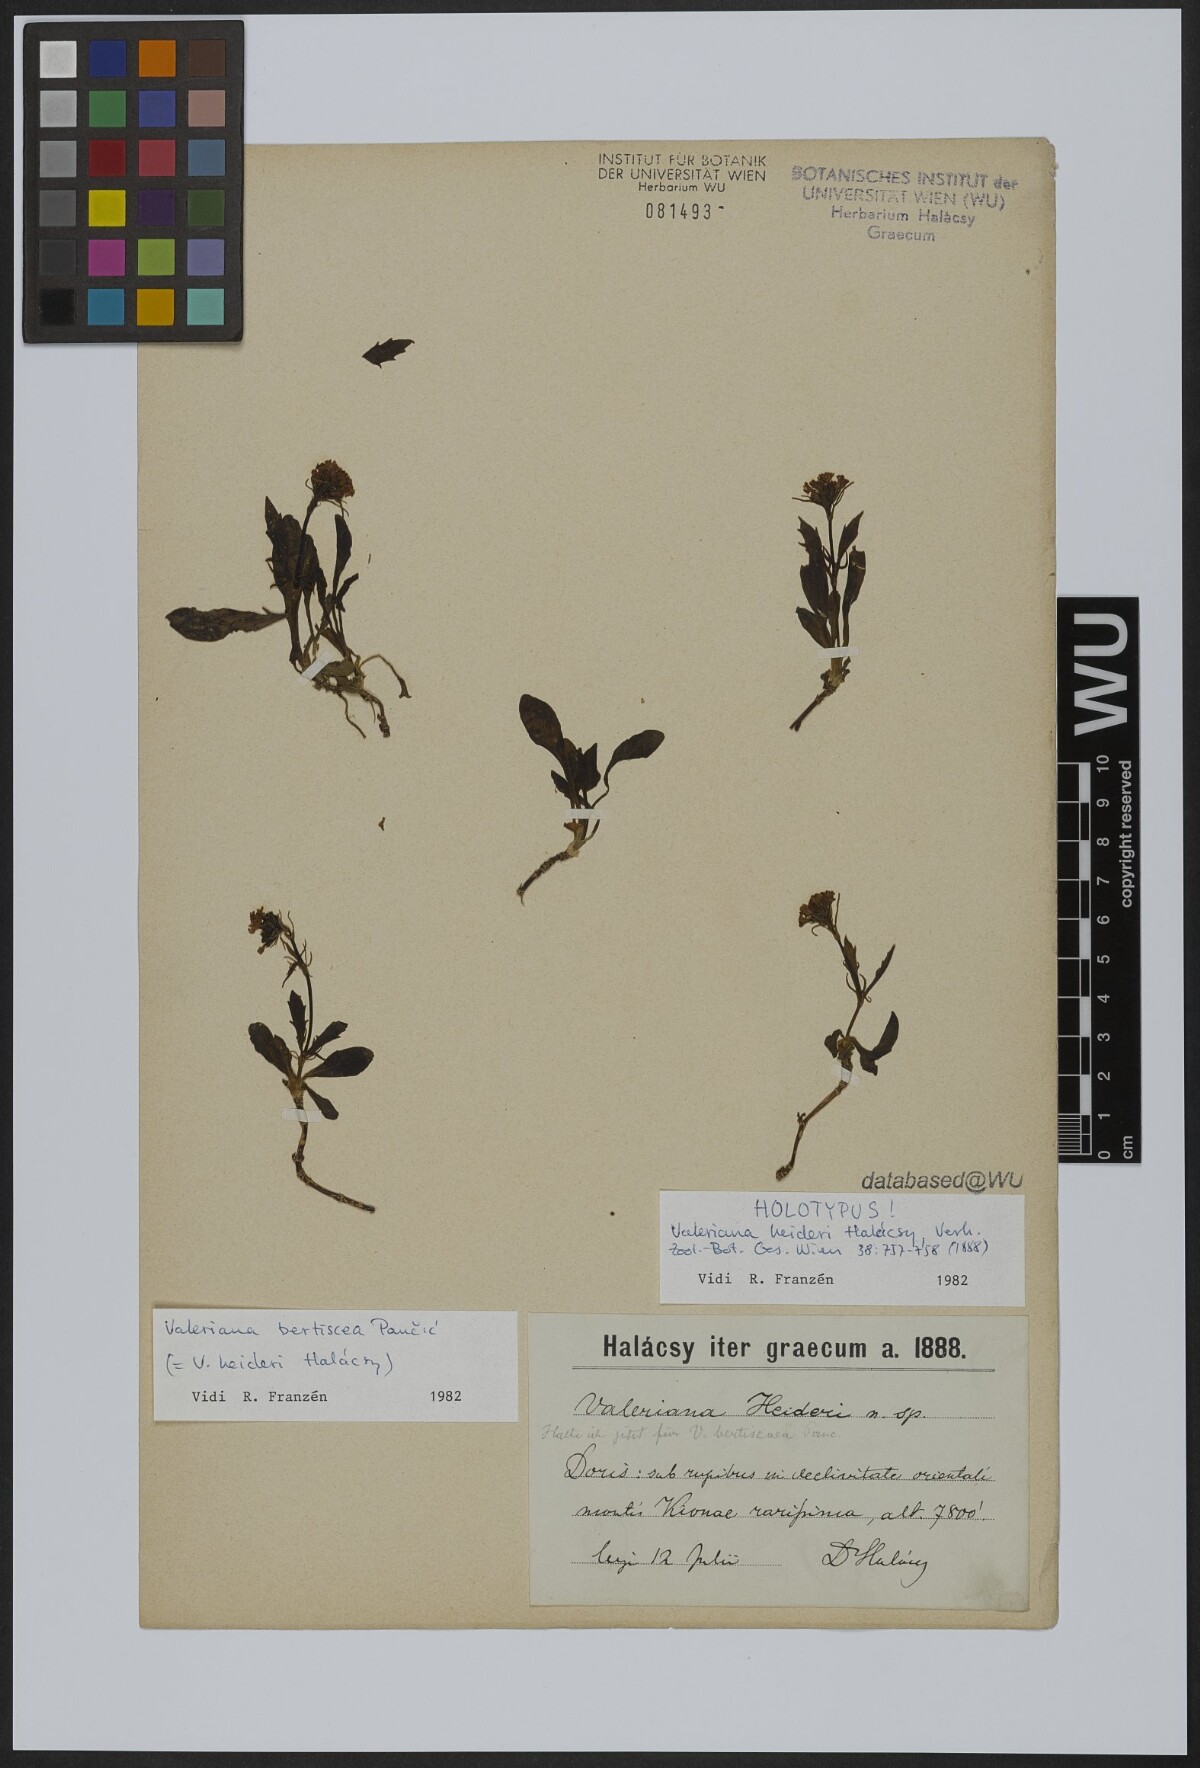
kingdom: Plantae
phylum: Tracheophyta
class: Magnoliopsida
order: Dipsacales
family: Caprifoliaceae
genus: Valeriana
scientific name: Valeriana bertiscea
